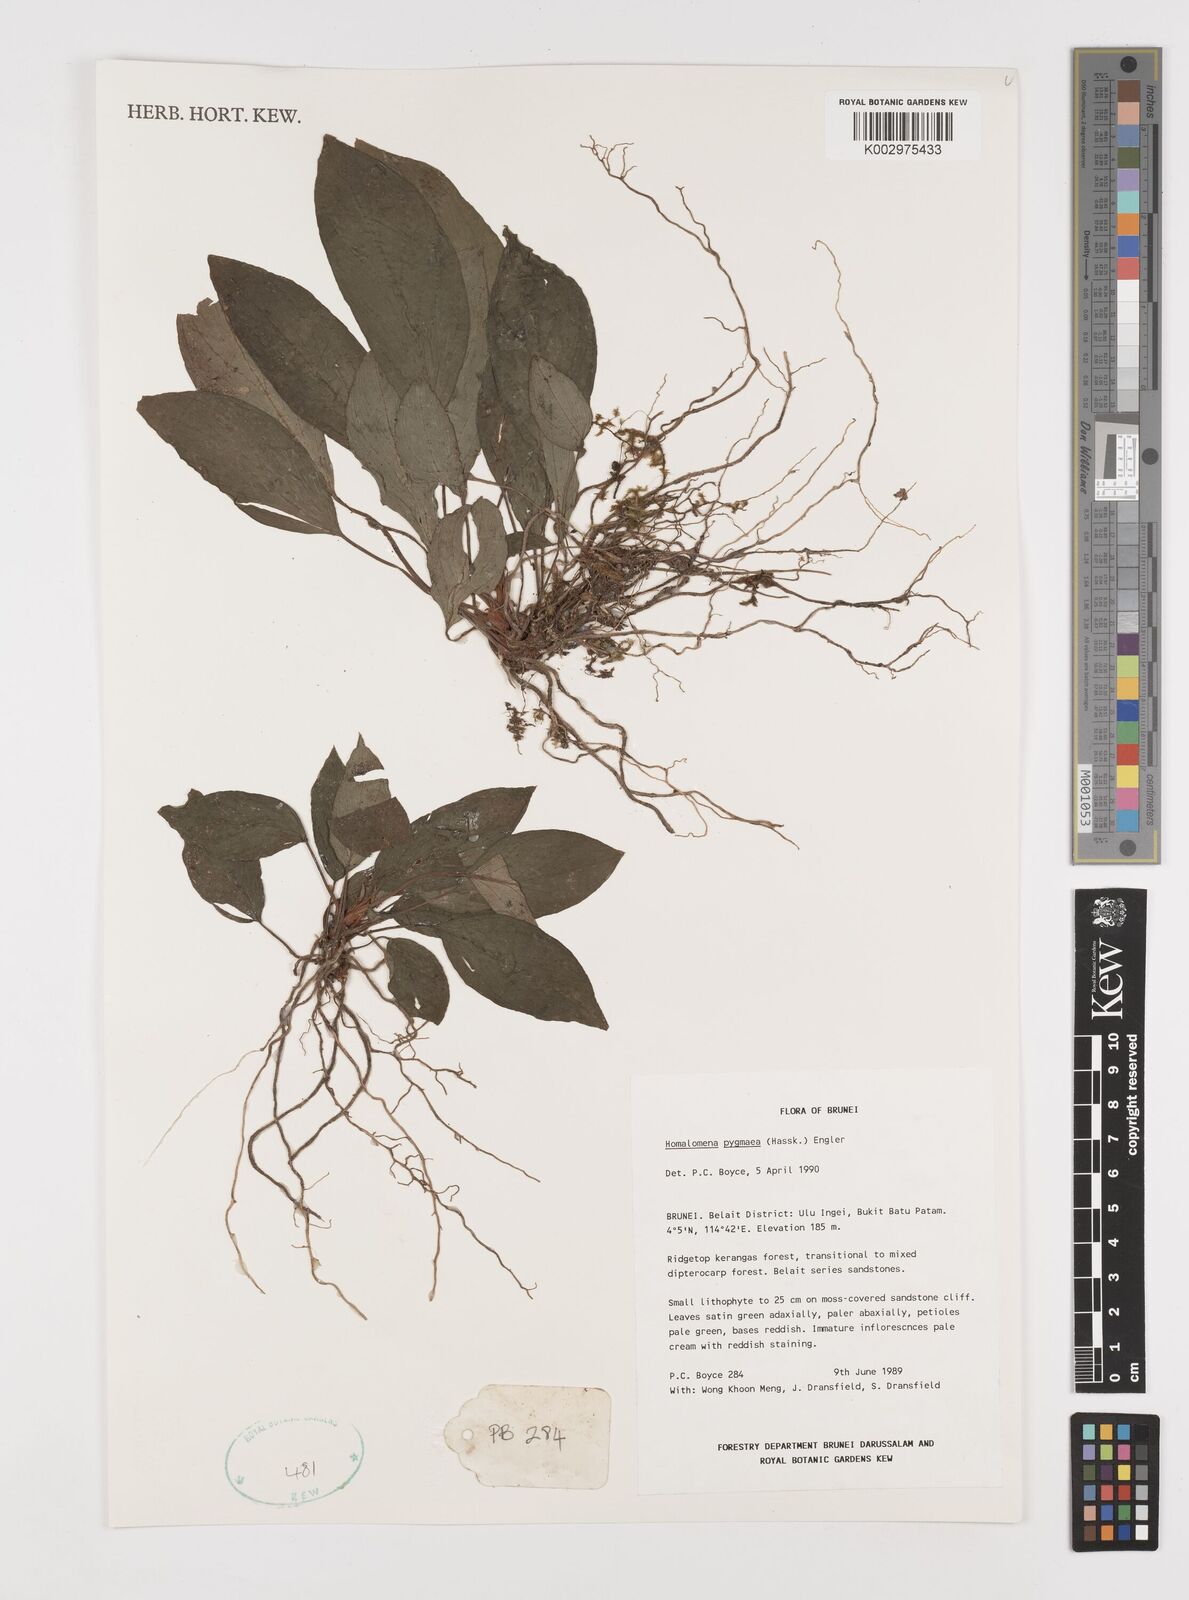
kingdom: Plantae
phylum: Tracheophyta
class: Liliopsida
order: Alismatales
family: Araceae
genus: Homalomena
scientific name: Homalomena humilis
